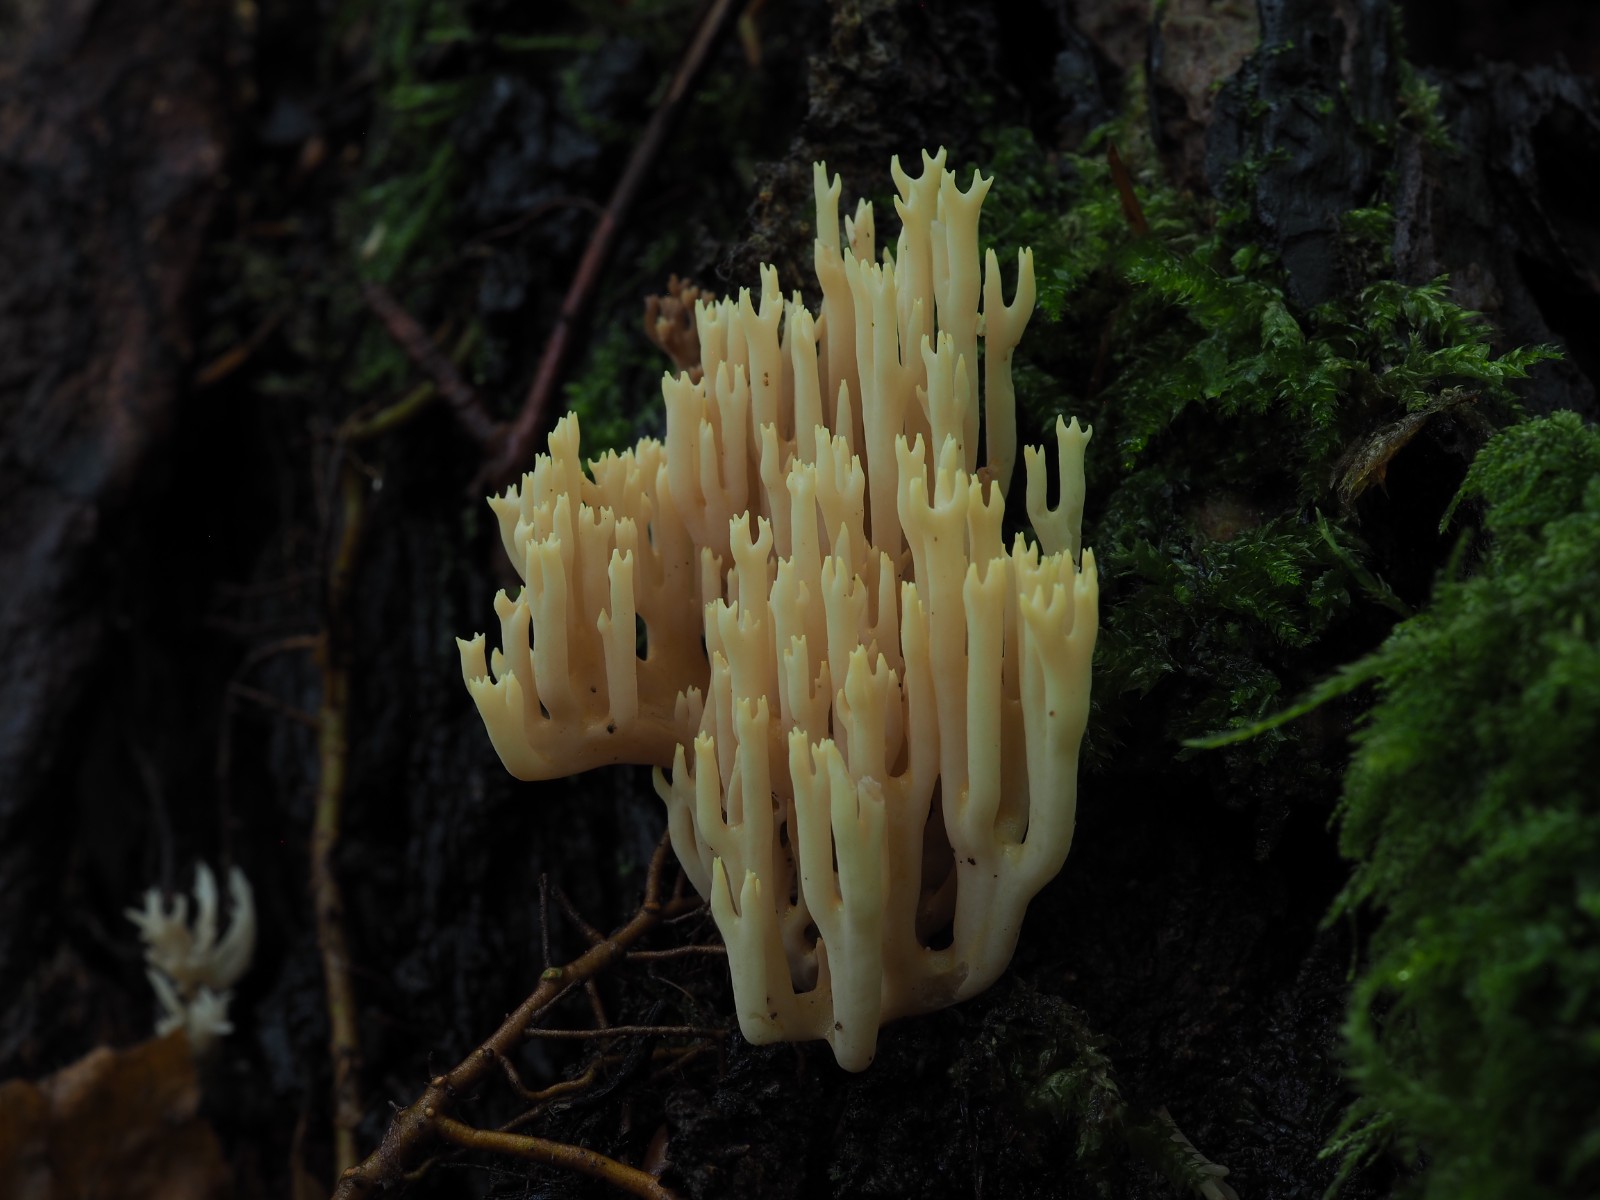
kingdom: Fungi
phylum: Basidiomycota
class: Agaricomycetes
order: Gomphales
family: Gomphaceae
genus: Ramaria
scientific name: Ramaria stricta
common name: rank koralsvamp
